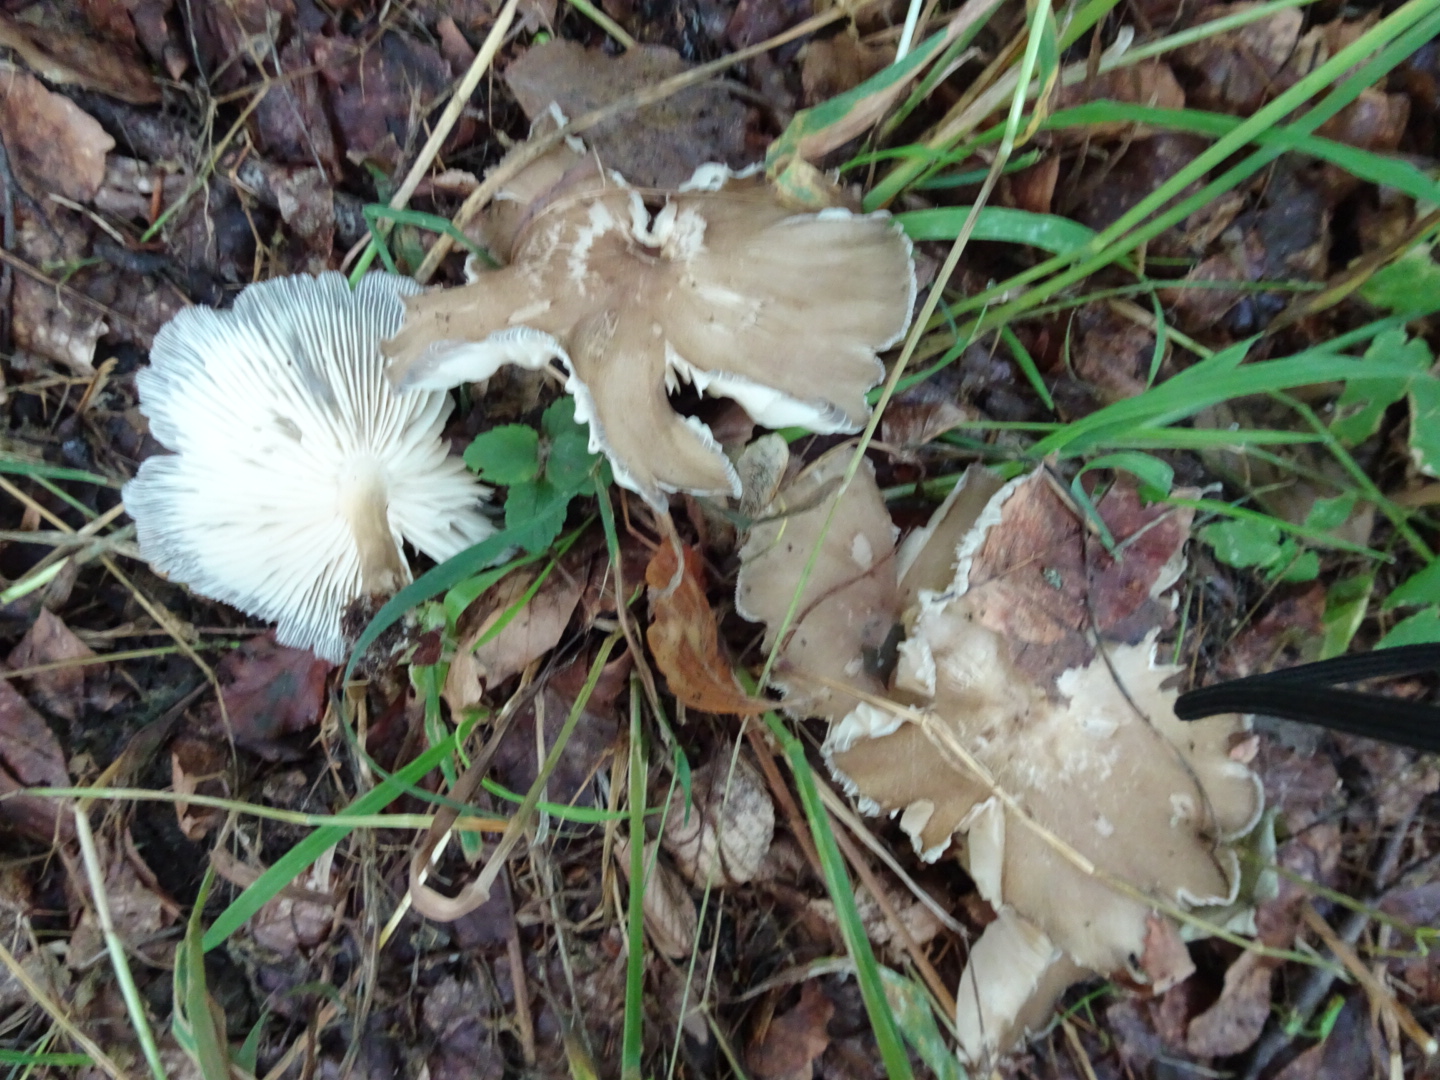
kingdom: Fungi
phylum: Basidiomycota
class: Agaricomycetes
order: Agaricales
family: Tricholomataceae
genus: Megacollybia
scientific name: Megacollybia platyphylla
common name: bredbladet væbnerhat
